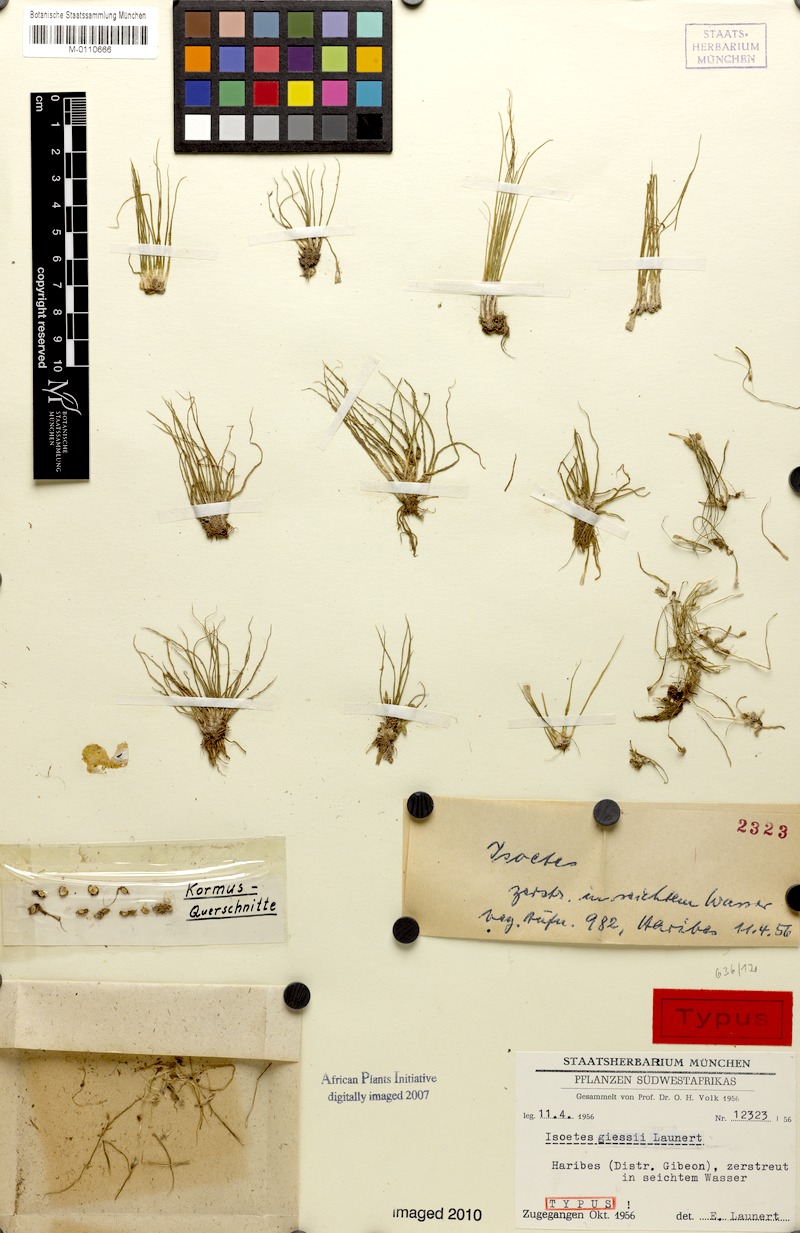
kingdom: Plantae
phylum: Tracheophyta
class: Lycopodiopsida
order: Isoetales
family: Isoetaceae
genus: Isoetes
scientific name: Isoetes giessii
